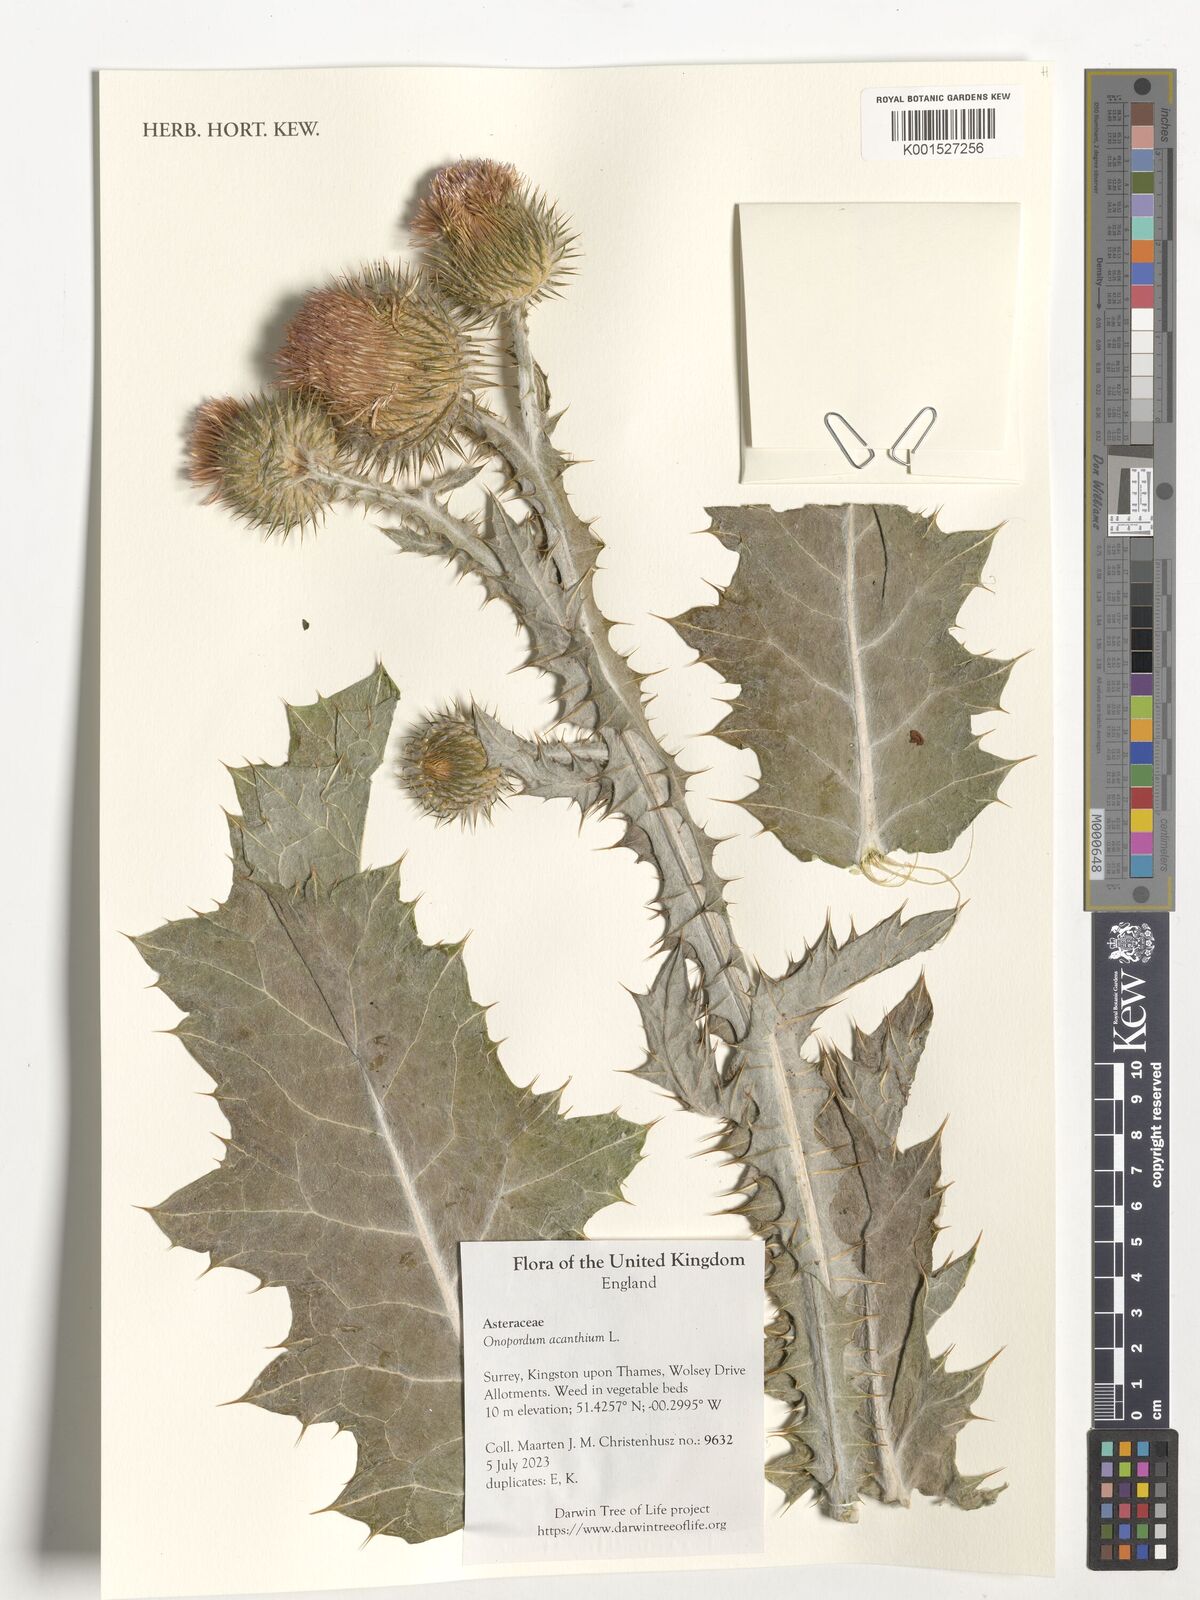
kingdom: Plantae
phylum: Tracheophyta
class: Magnoliopsida
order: Asterales
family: Asteraceae
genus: Onopordum
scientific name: Onopordum acanthium
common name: Scotch thistle
